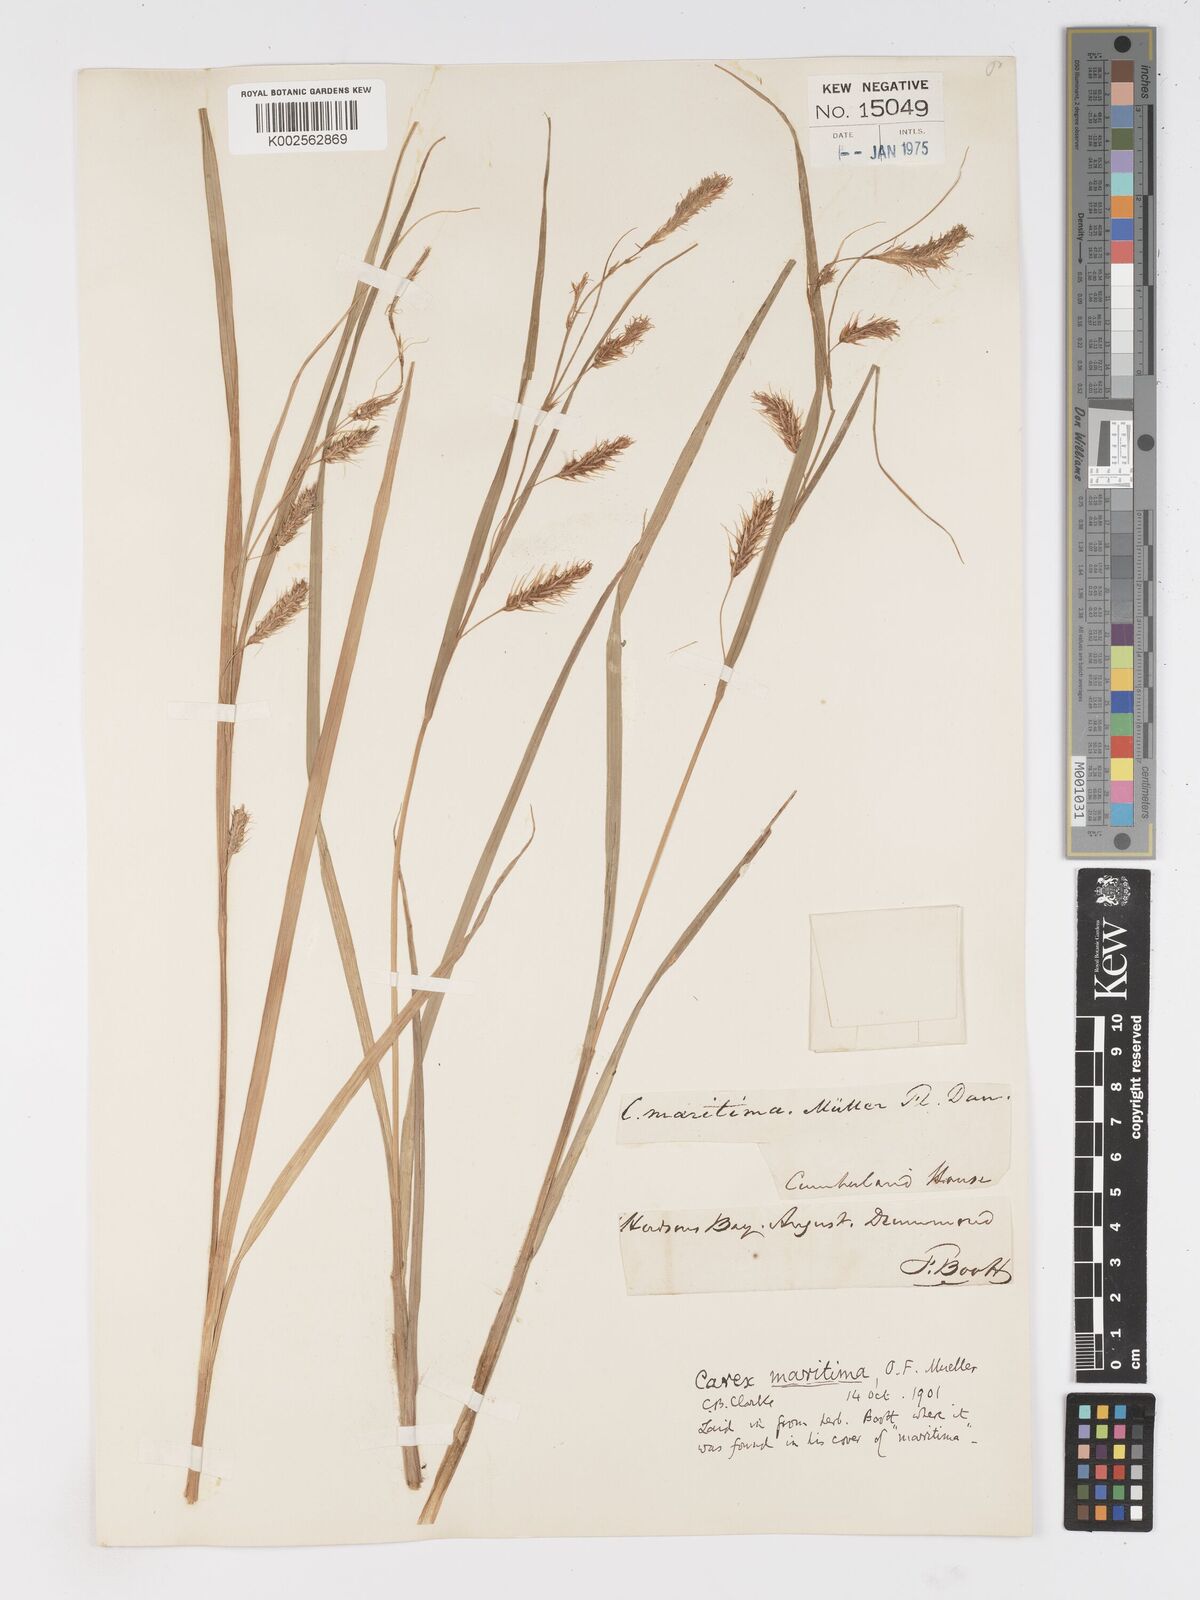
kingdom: Plantae
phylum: Tracheophyta
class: Liliopsida
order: Poales
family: Cyperaceae
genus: Carex
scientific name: Carex paleacea
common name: Chaffy sedge
